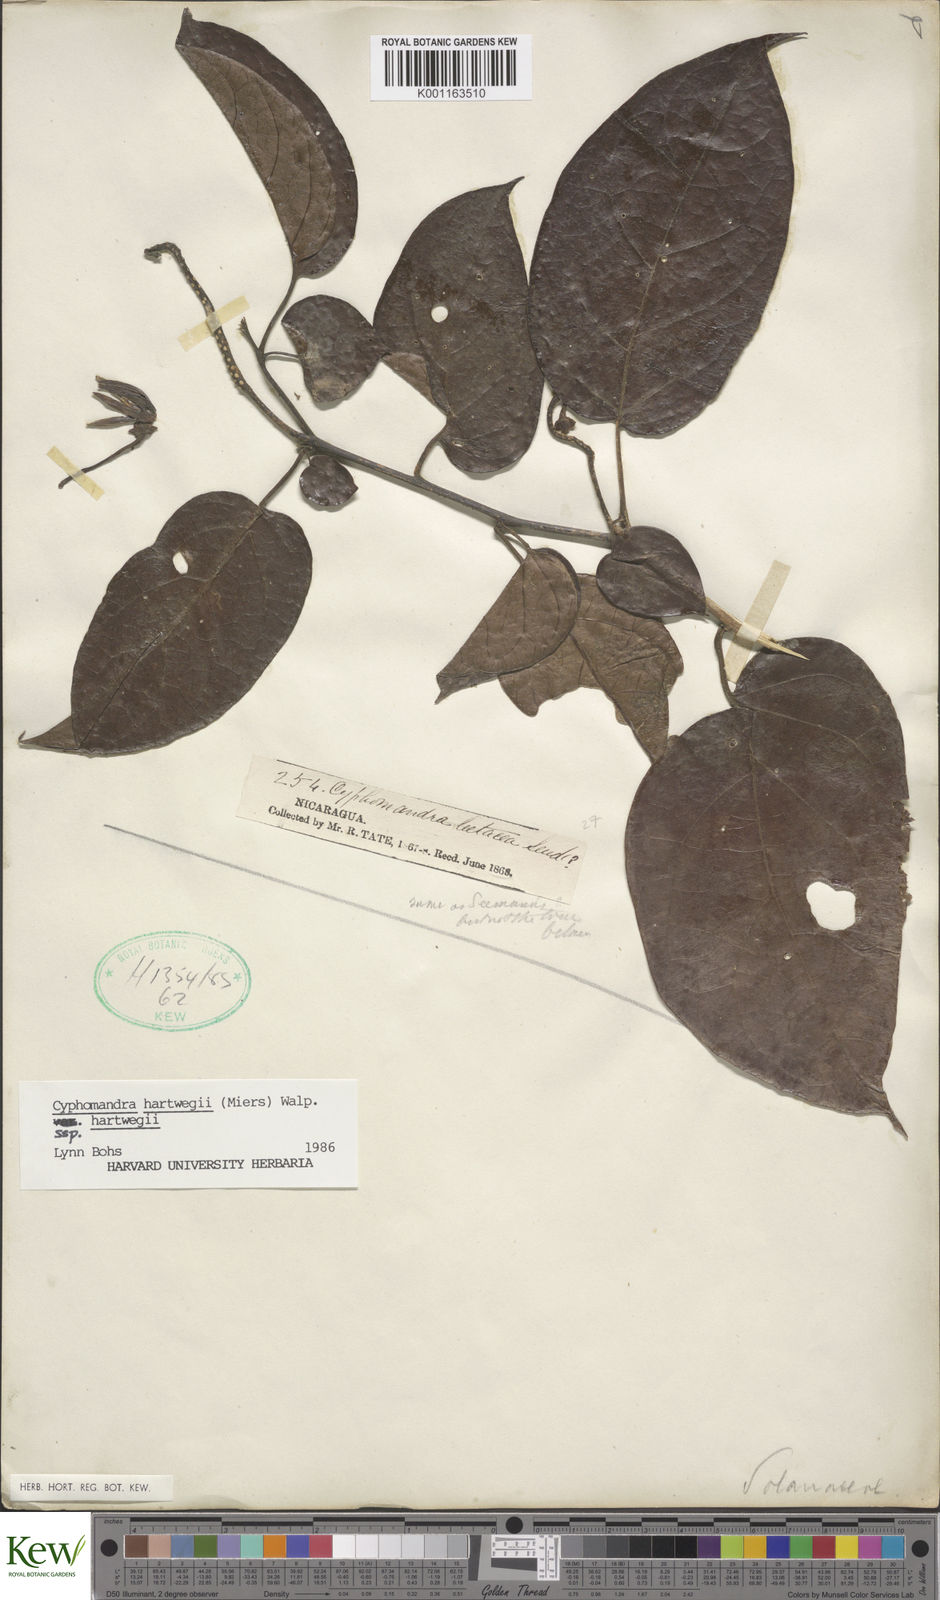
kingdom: Plantae
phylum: Tracheophyta
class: Magnoliopsida
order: Solanales
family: Solanaceae
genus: Solanum
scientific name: Solanum splendens
